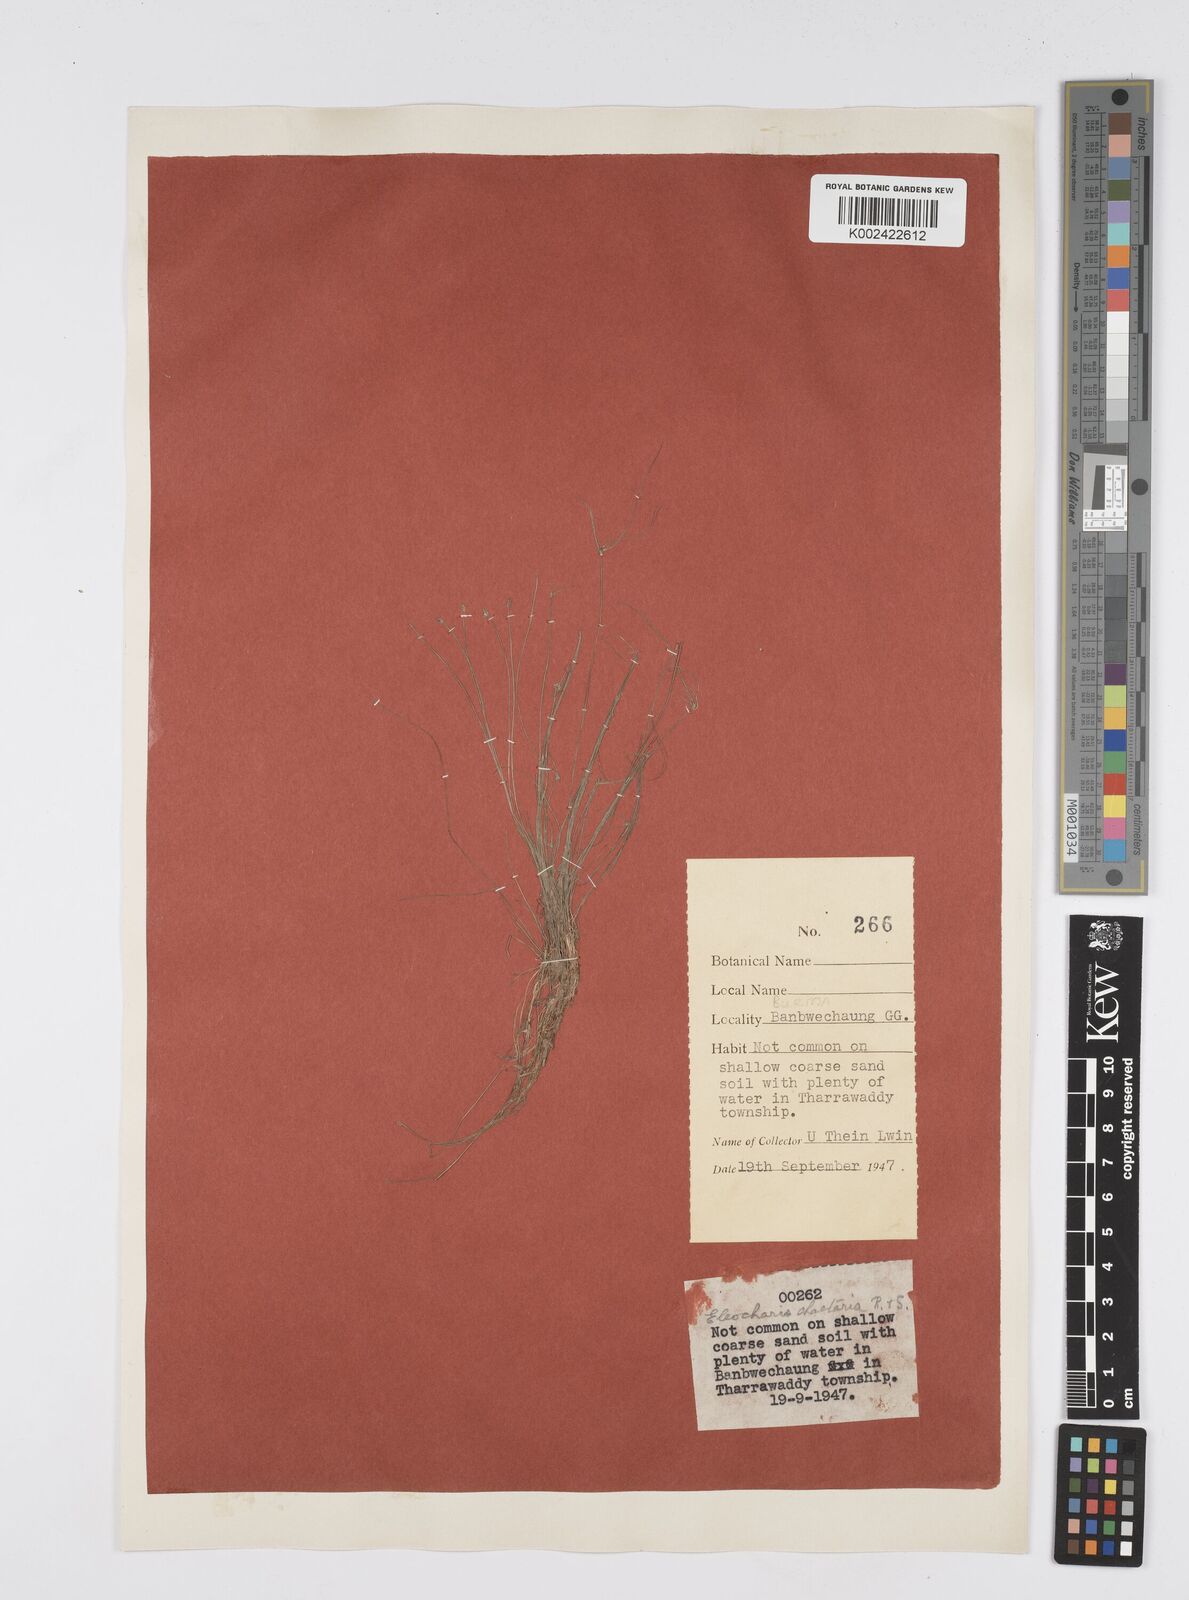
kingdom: Plantae
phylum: Tracheophyta
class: Liliopsida
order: Poales
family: Cyperaceae
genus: Eleocharis
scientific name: Eleocharis retroflexa
